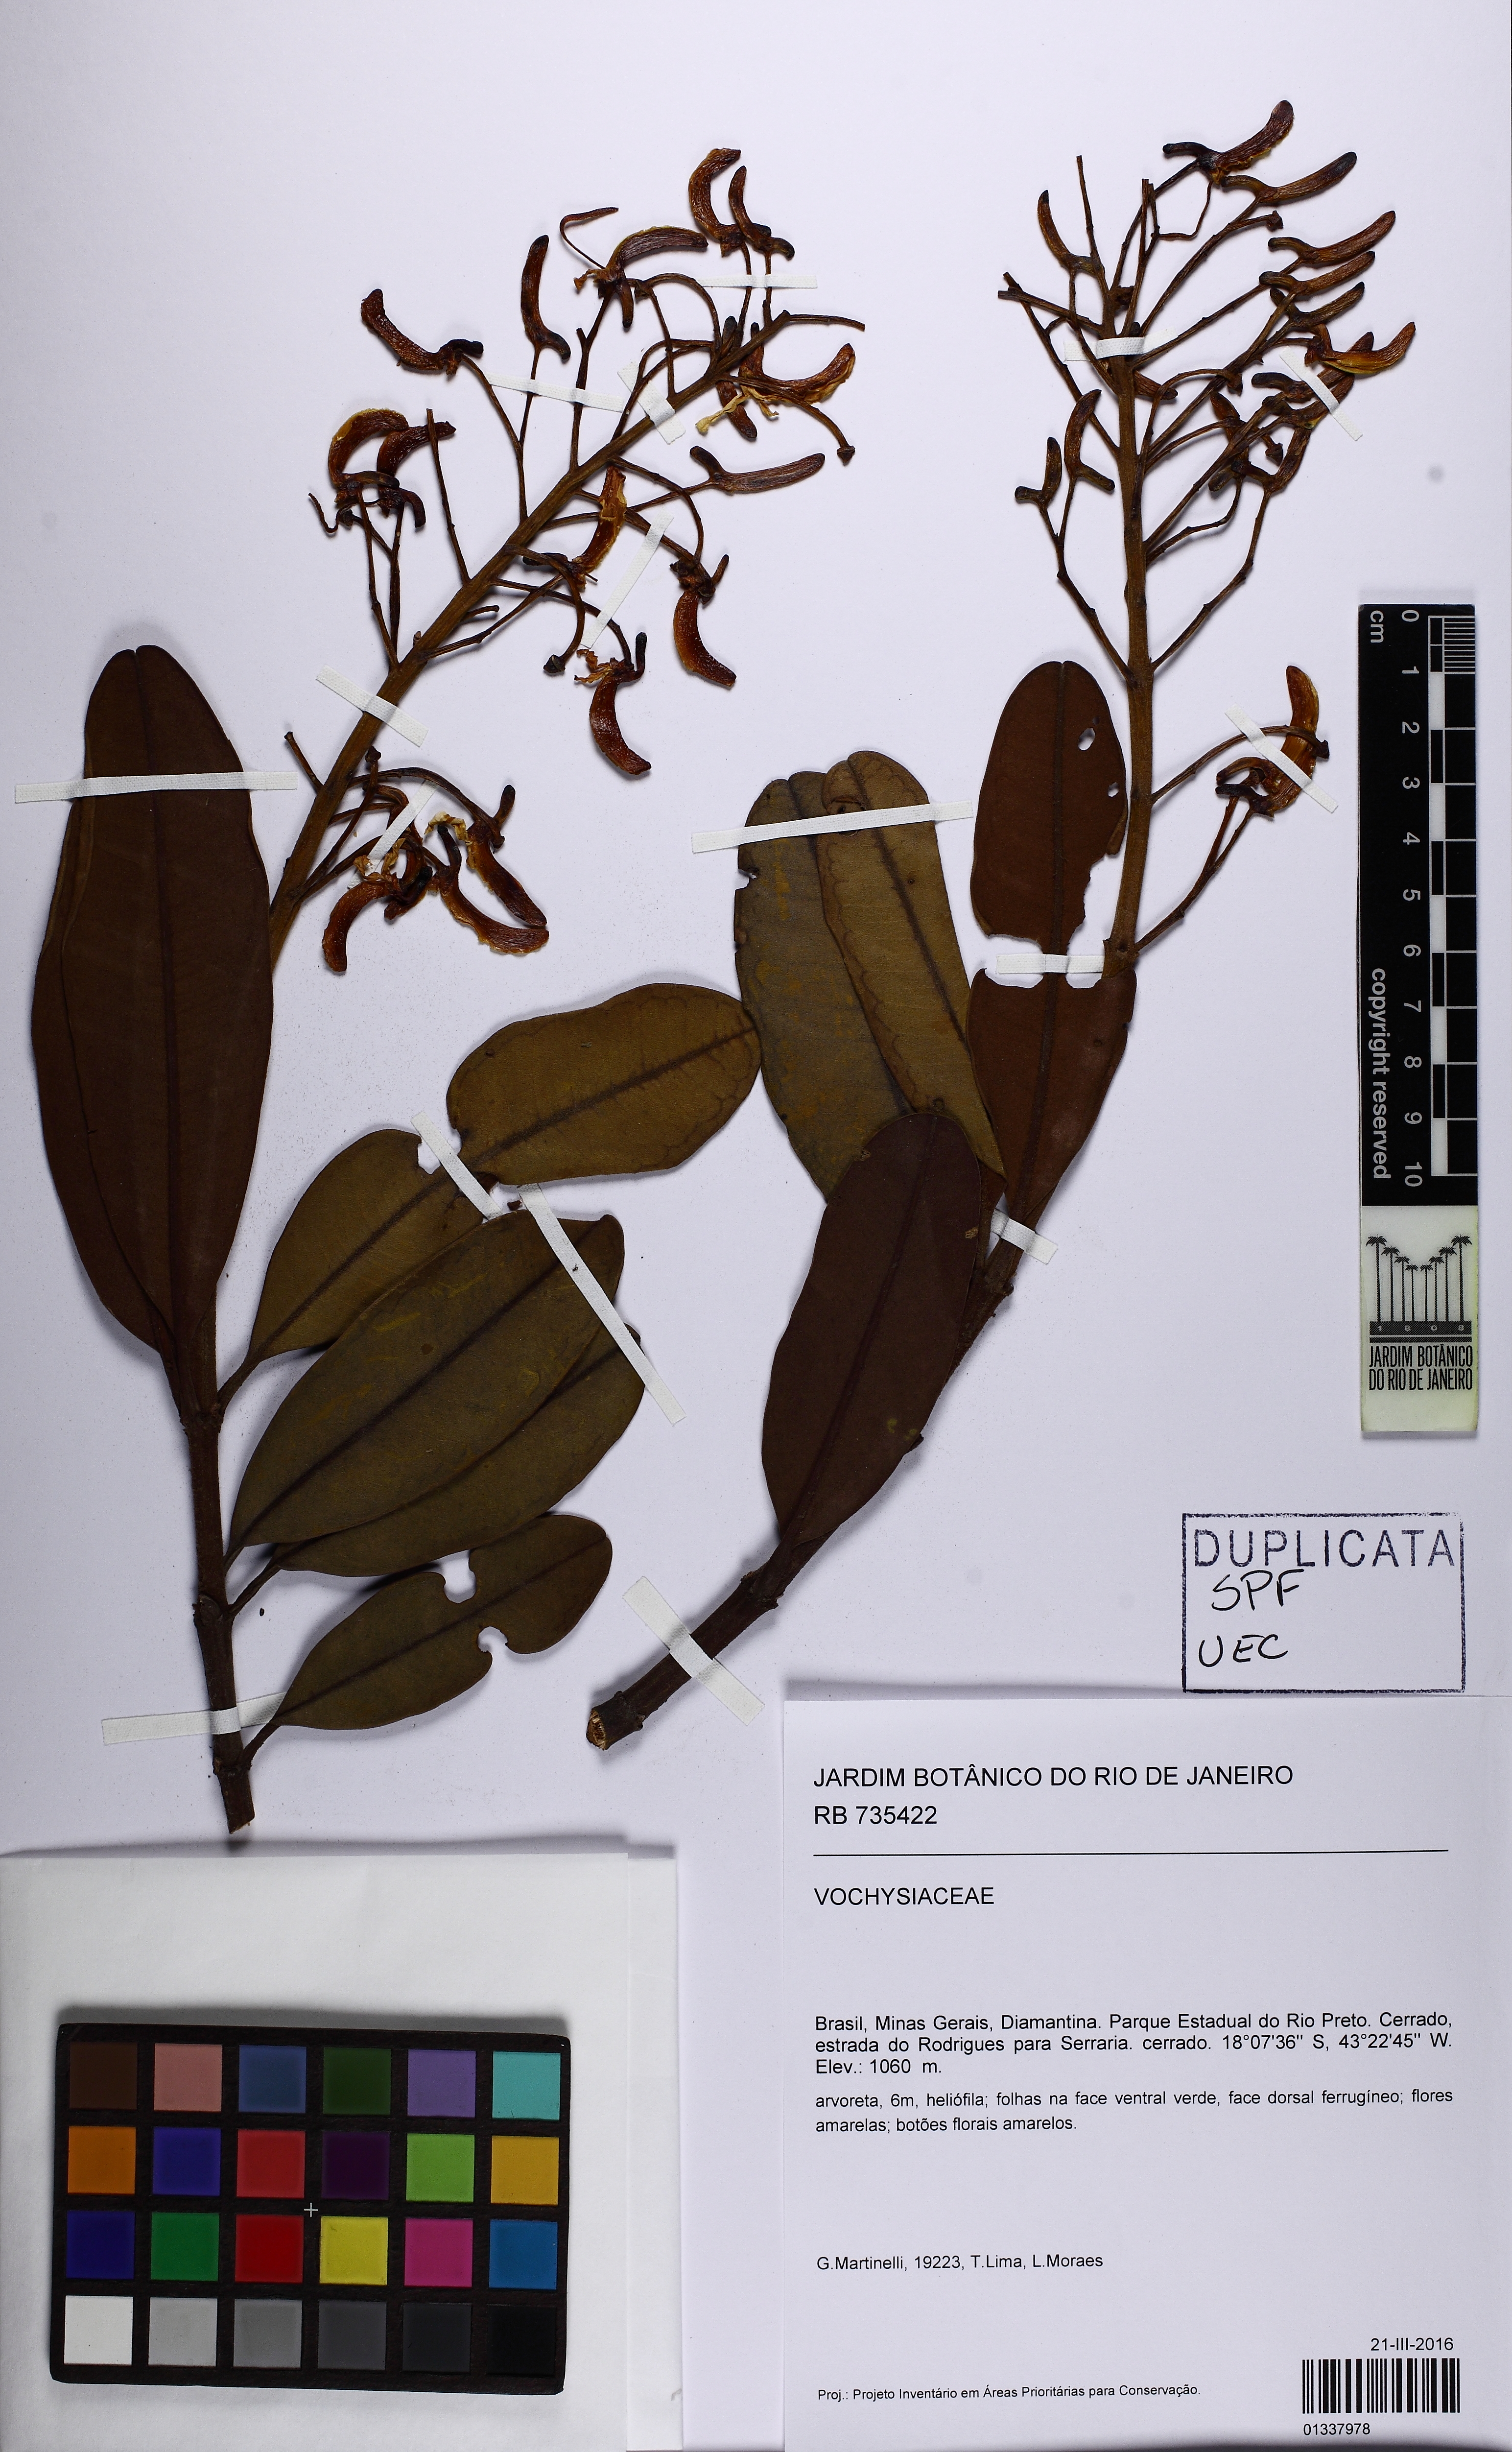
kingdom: Plantae
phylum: Tracheophyta
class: Magnoliopsida
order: Myrtales
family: Vochysiaceae
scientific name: Vochysiaceae
